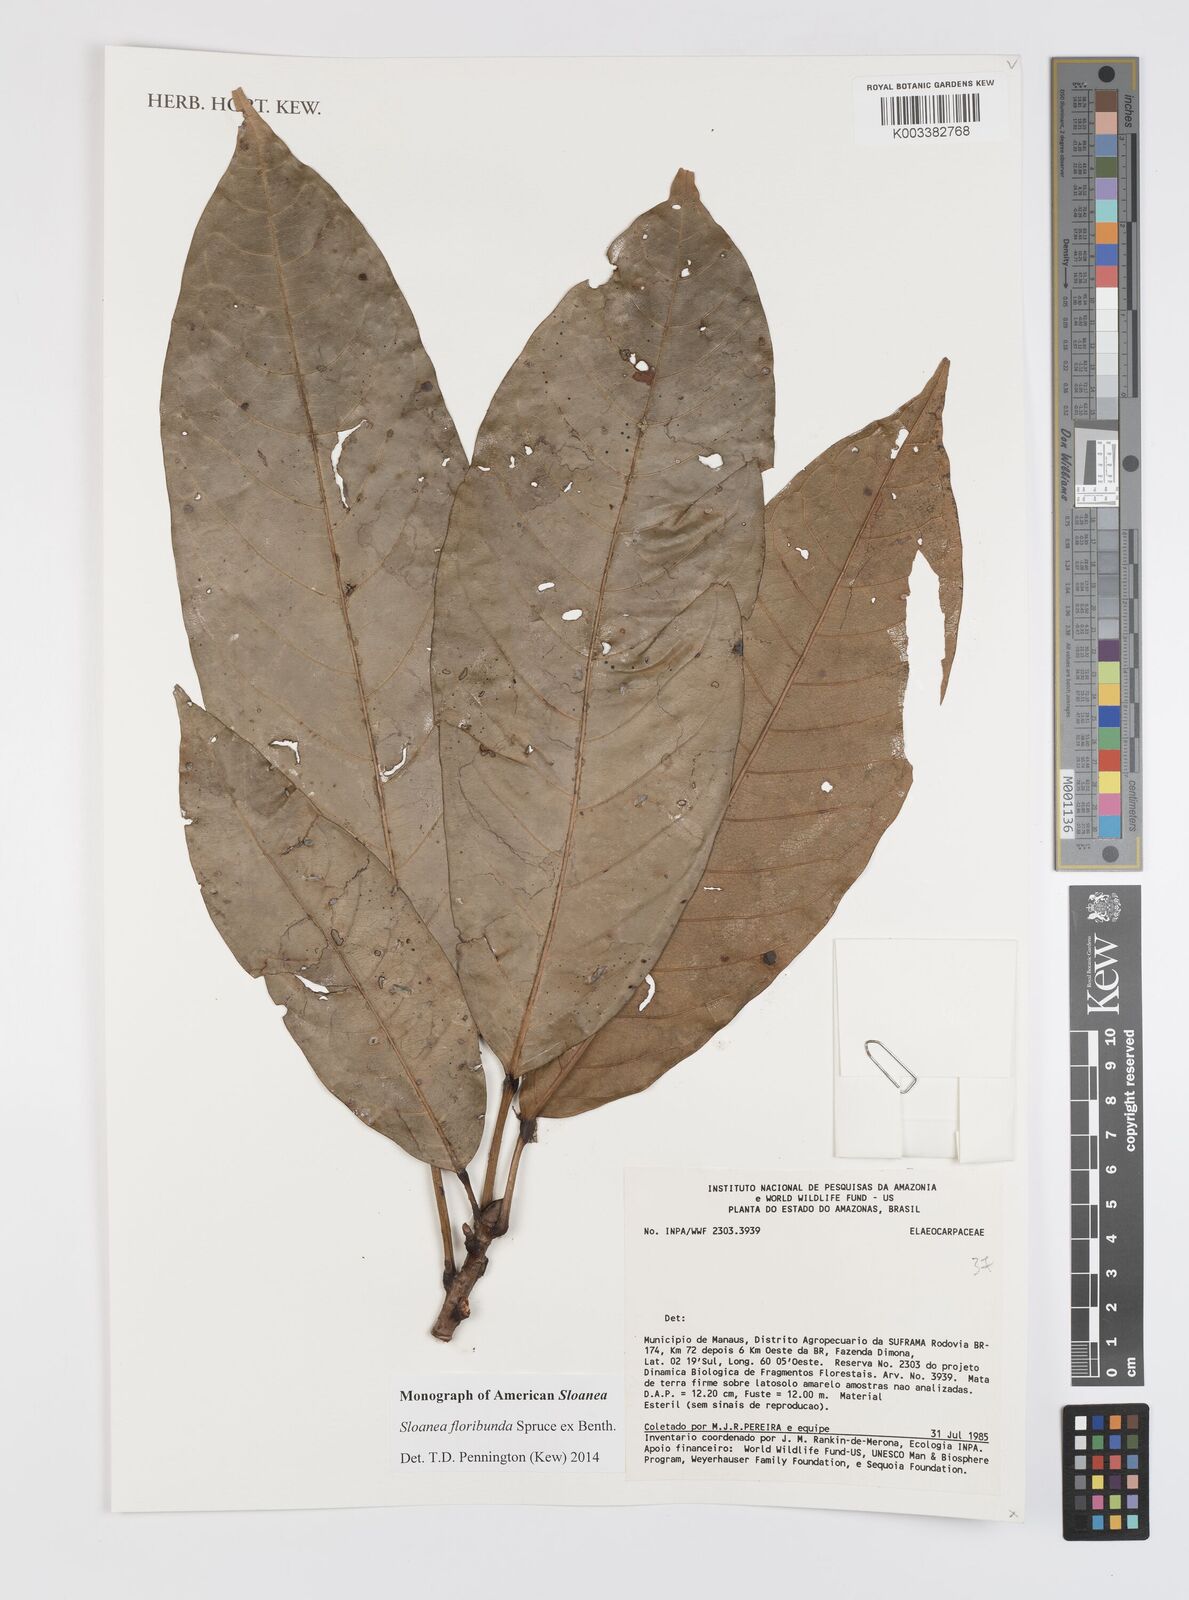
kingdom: Plantae
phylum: Tracheophyta
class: Magnoliopsida
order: Oxalidales
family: Elaeocarpaceae
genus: Sloanea
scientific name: Sloanea floribunda
